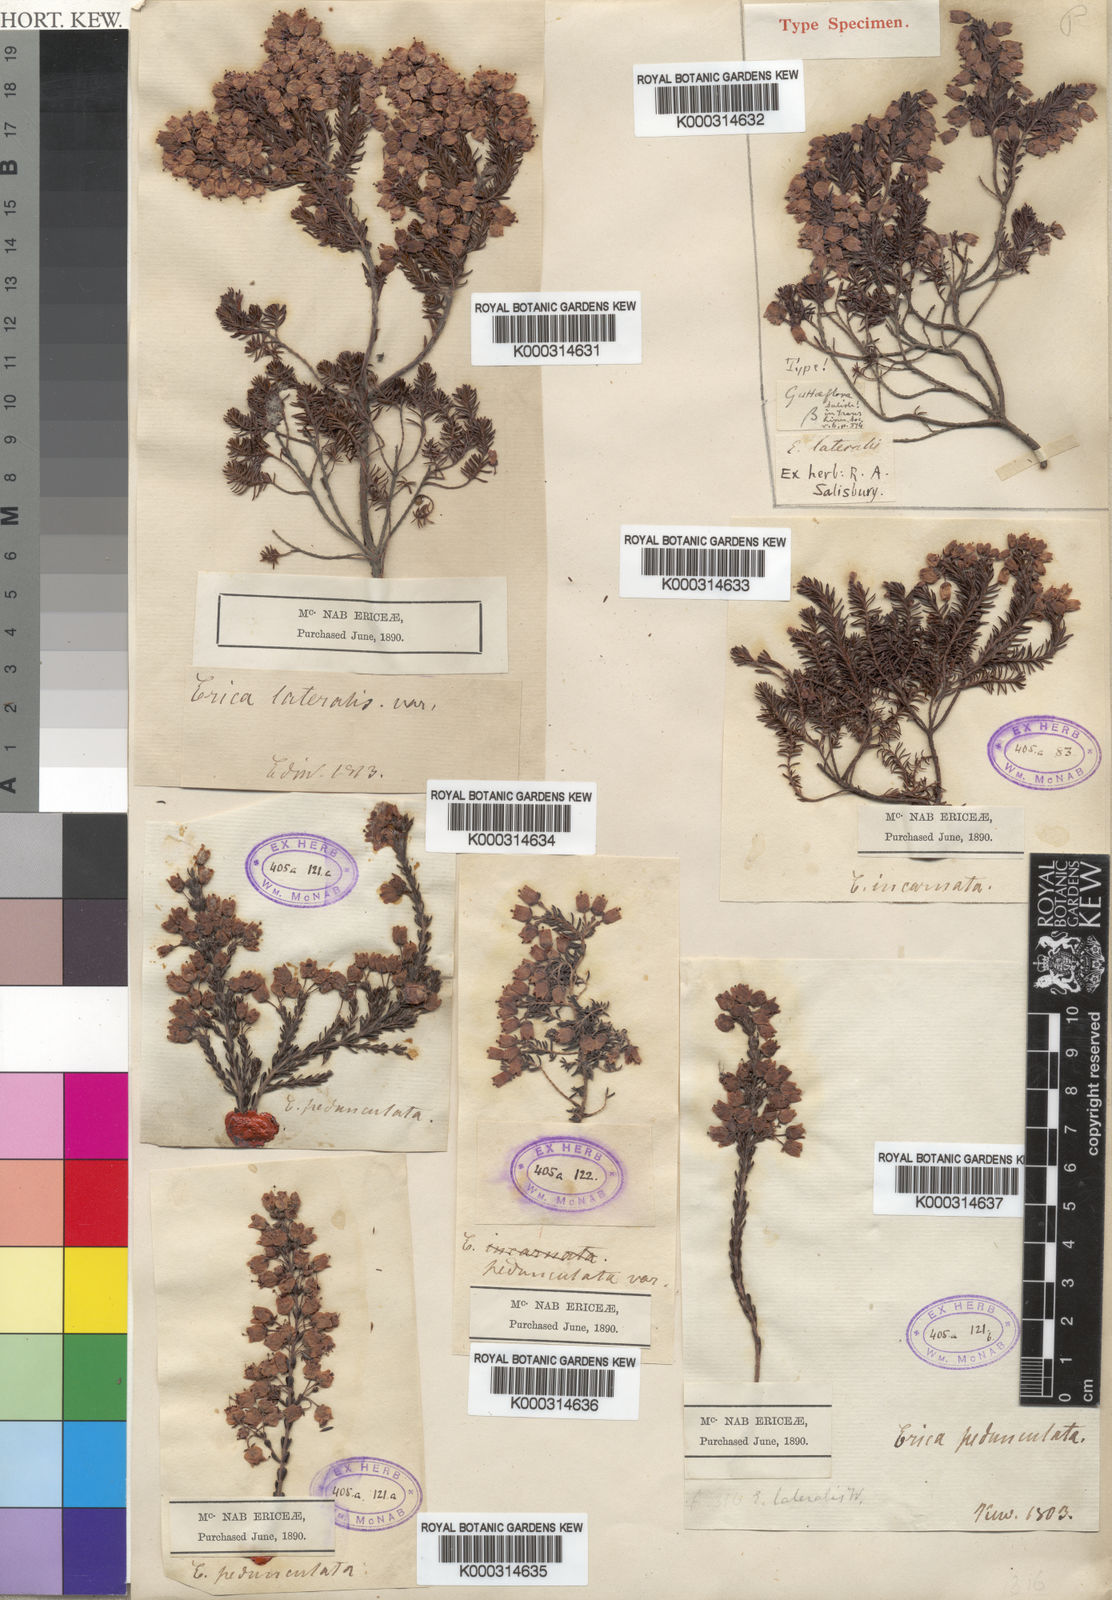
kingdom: Plantae
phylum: Tracheophyta
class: Magnoliopsida
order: Ericales
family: Ericaceae
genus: Erica
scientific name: Erica lateralis
